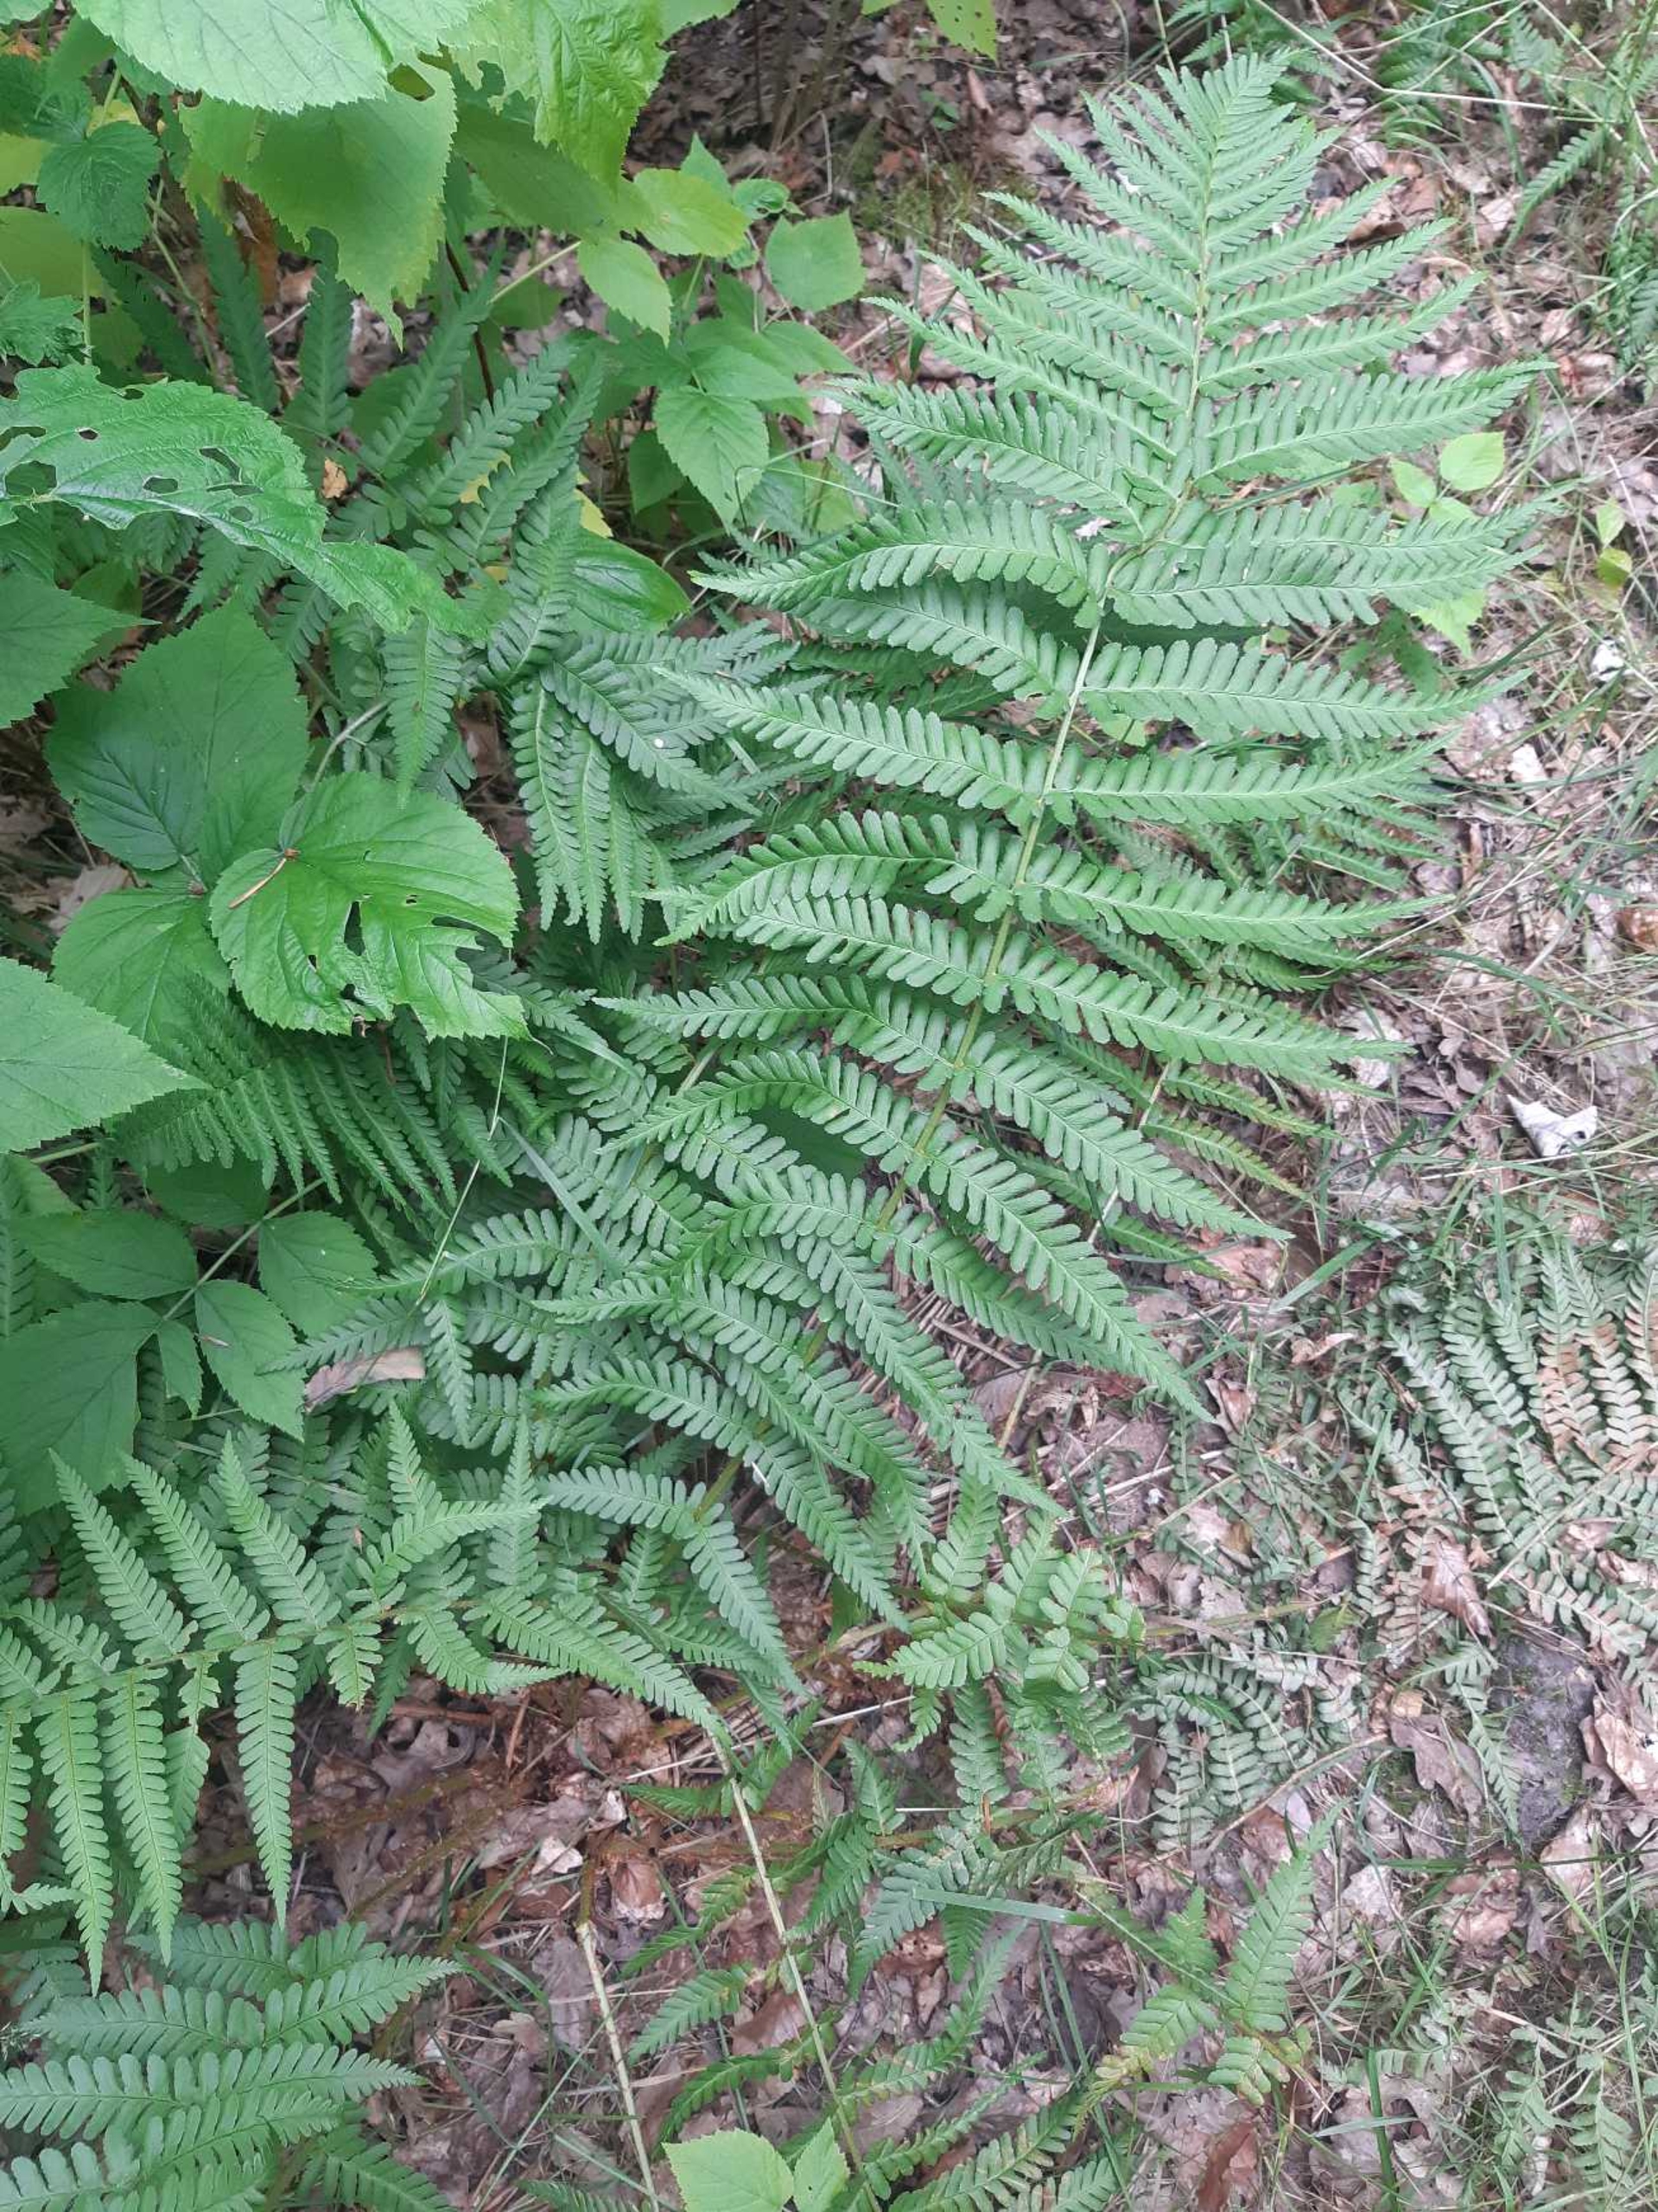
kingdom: Plantae
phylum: Tracheophyta
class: Polypodiopsida
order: Polypodiales
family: Dryopteridaceae
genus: Dryopteris
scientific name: Dryopteris filix-mas
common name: Almindelig mangeløv
